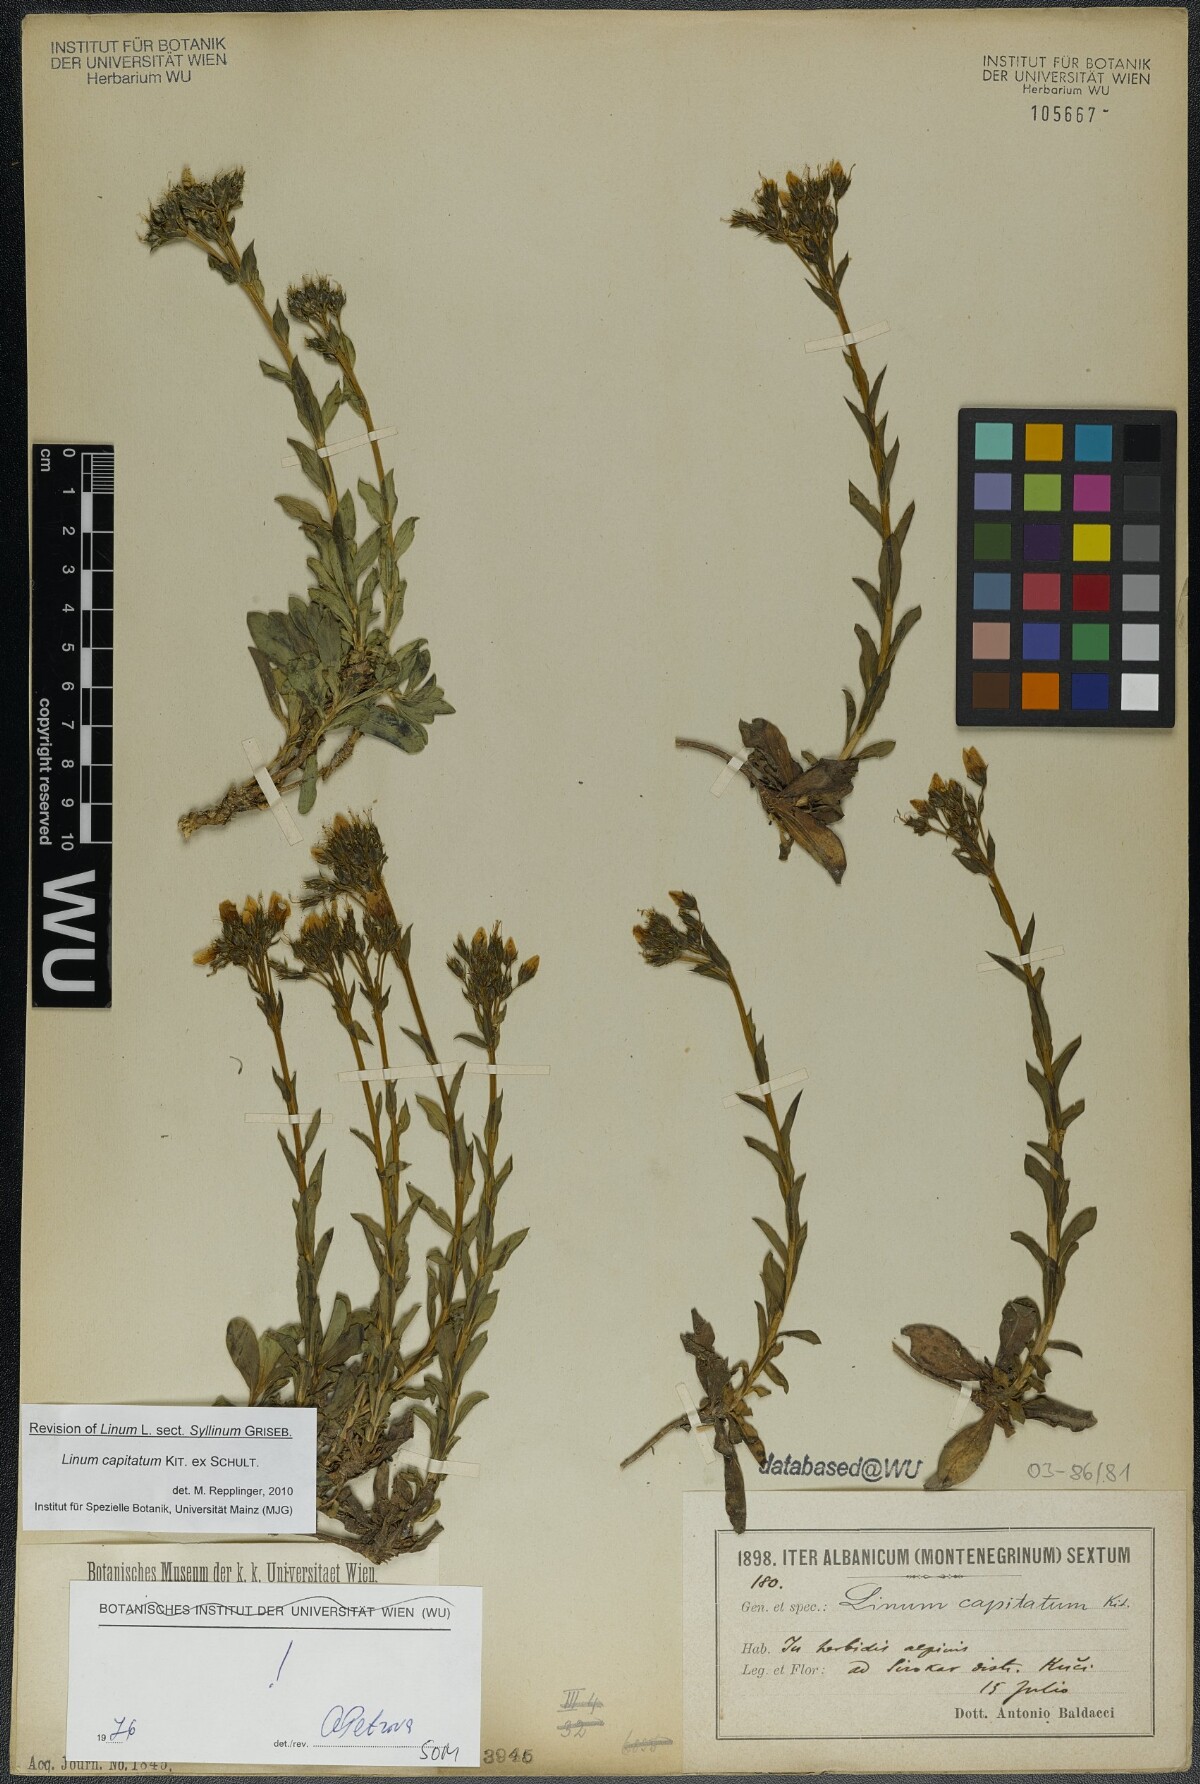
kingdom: Plantae
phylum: Tracheophyta
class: Magnoliopsida
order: Malpighiales
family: Linaceae
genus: Linum
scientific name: Linum capitatum
